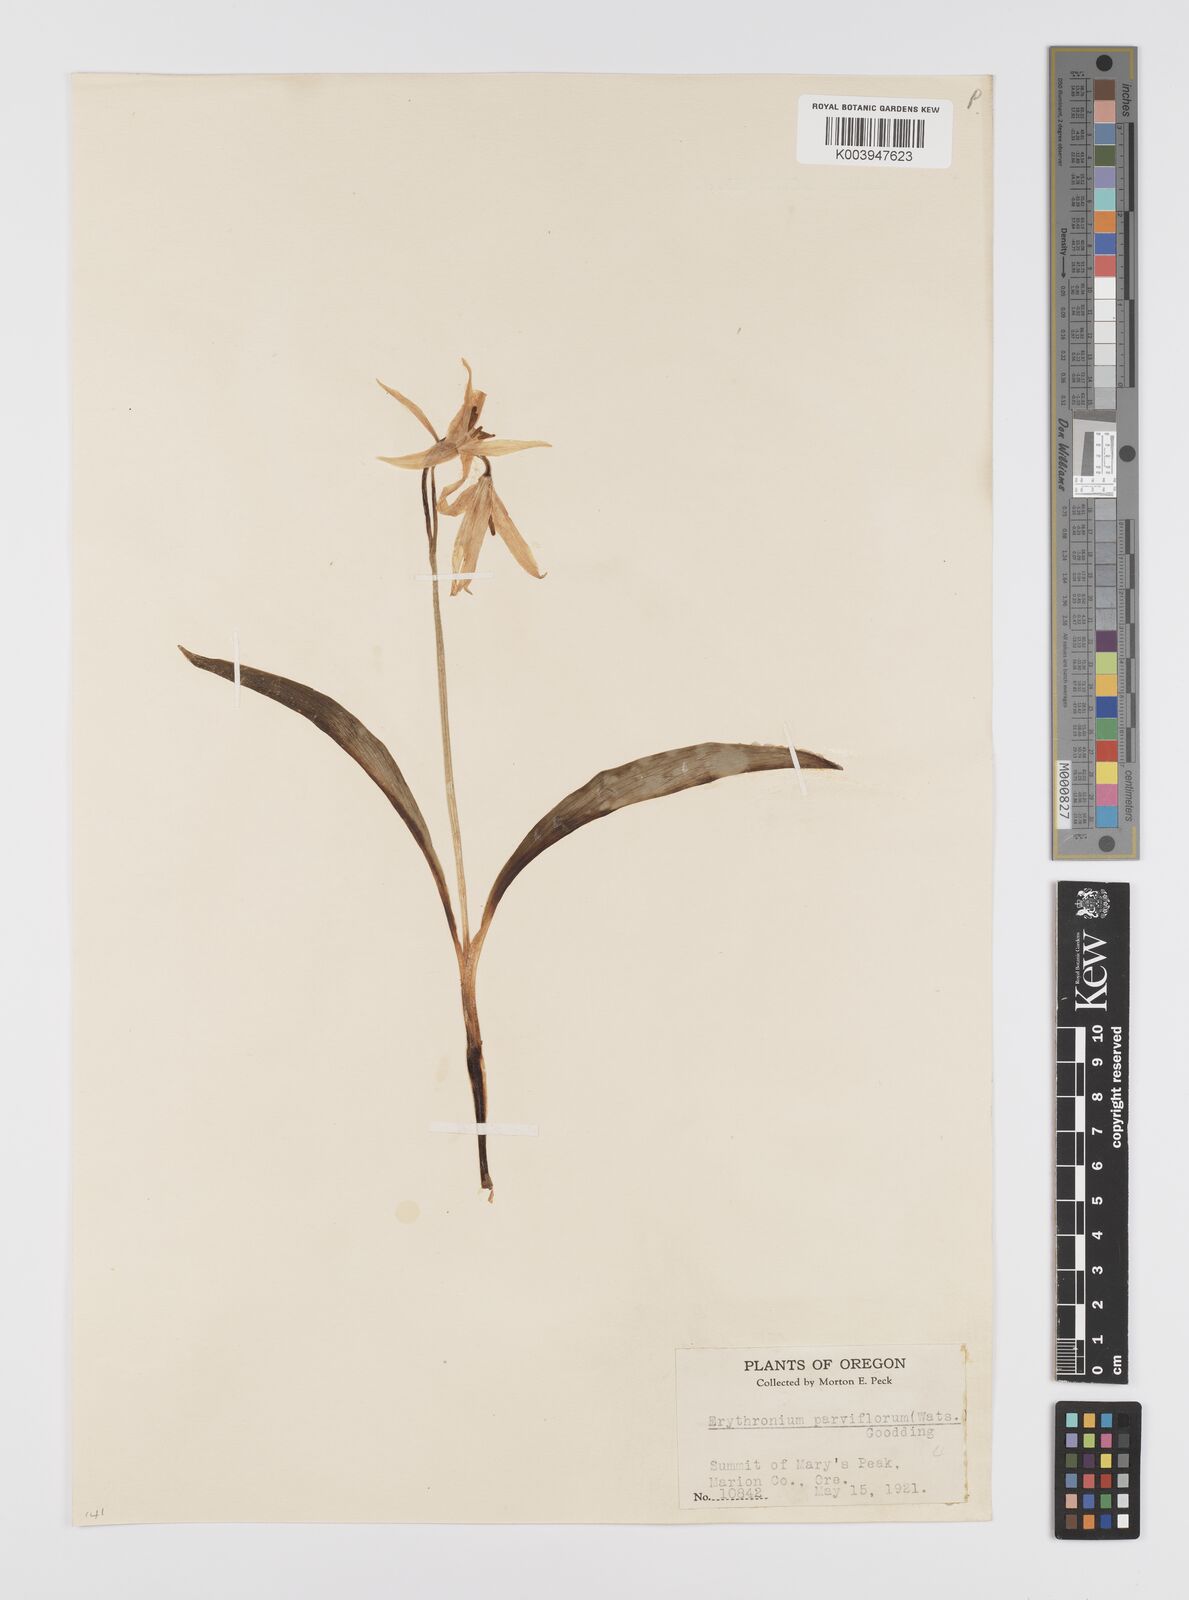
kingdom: Plantae
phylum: Tracheophyta
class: Liliopsida
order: Liliales
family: Liliaceae
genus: Erythronium
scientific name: Erythronium grandiflorum
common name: Avalanche-lily
